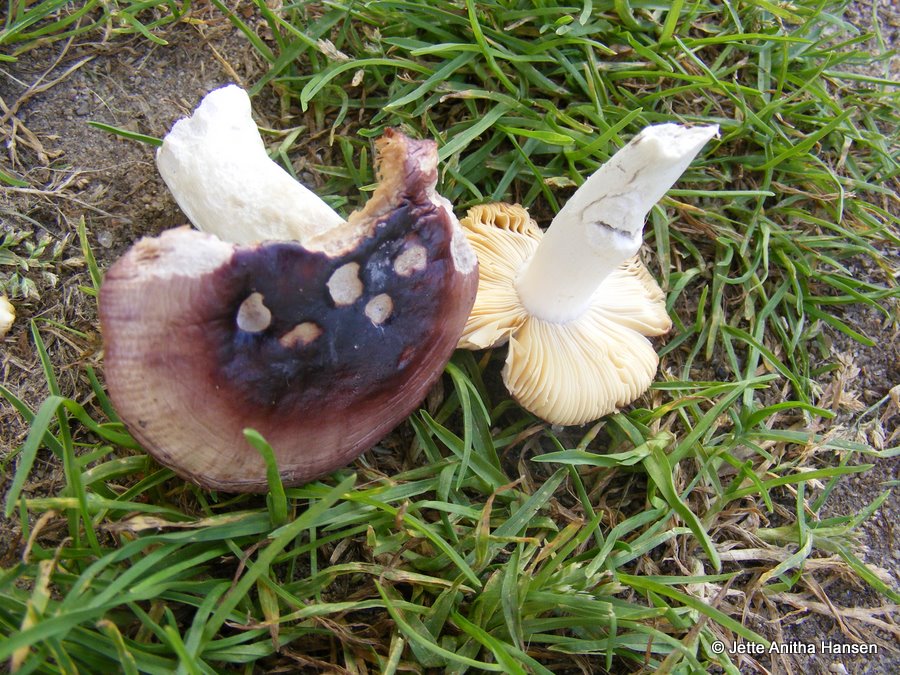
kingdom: Fungi
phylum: Basidiomycota
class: Agaricomycetes
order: Russulales
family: Russulaceae
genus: Russula
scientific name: Russula cessans
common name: fyrre-skørhat
